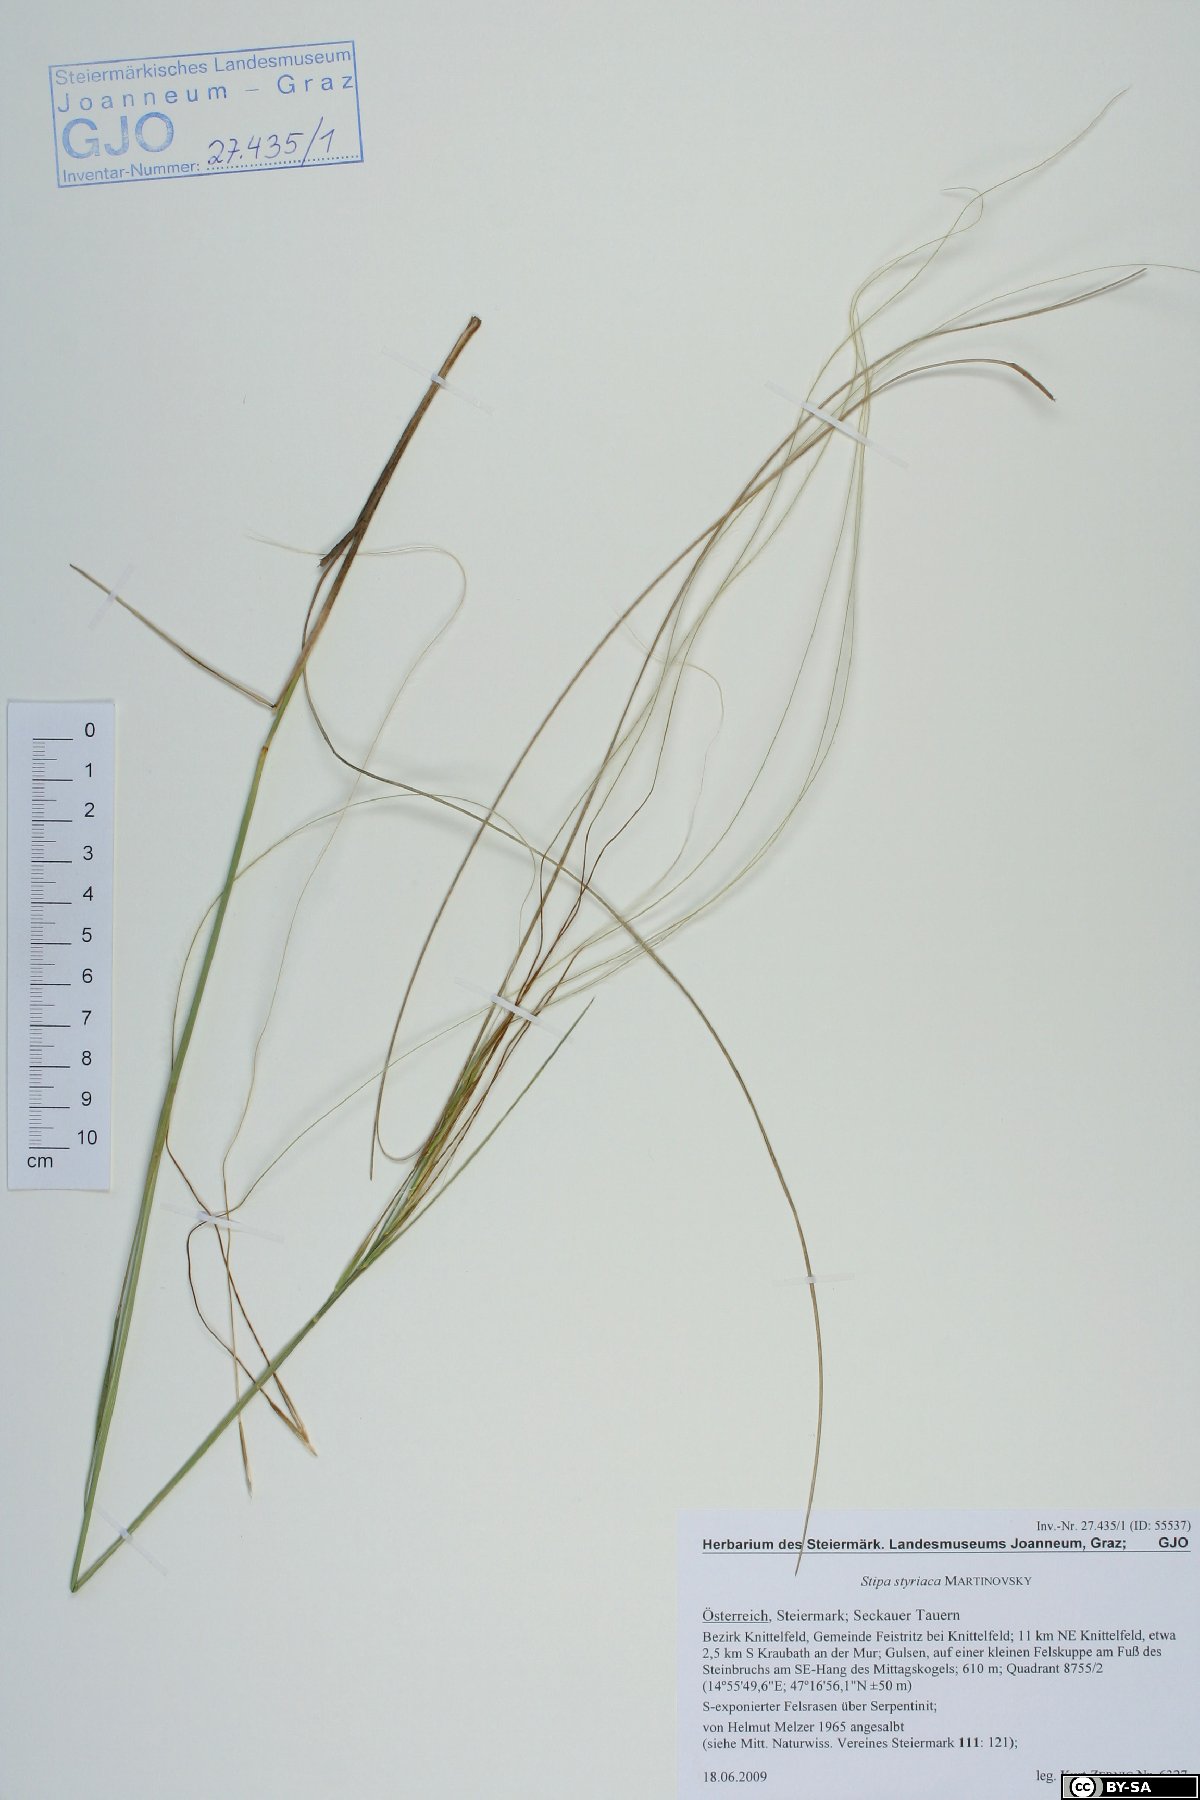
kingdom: Plantae
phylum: Tracheophyta
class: Liliopsida
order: Poales
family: Poaceae
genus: Stipa
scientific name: Stipa pennata
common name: European feather grass
